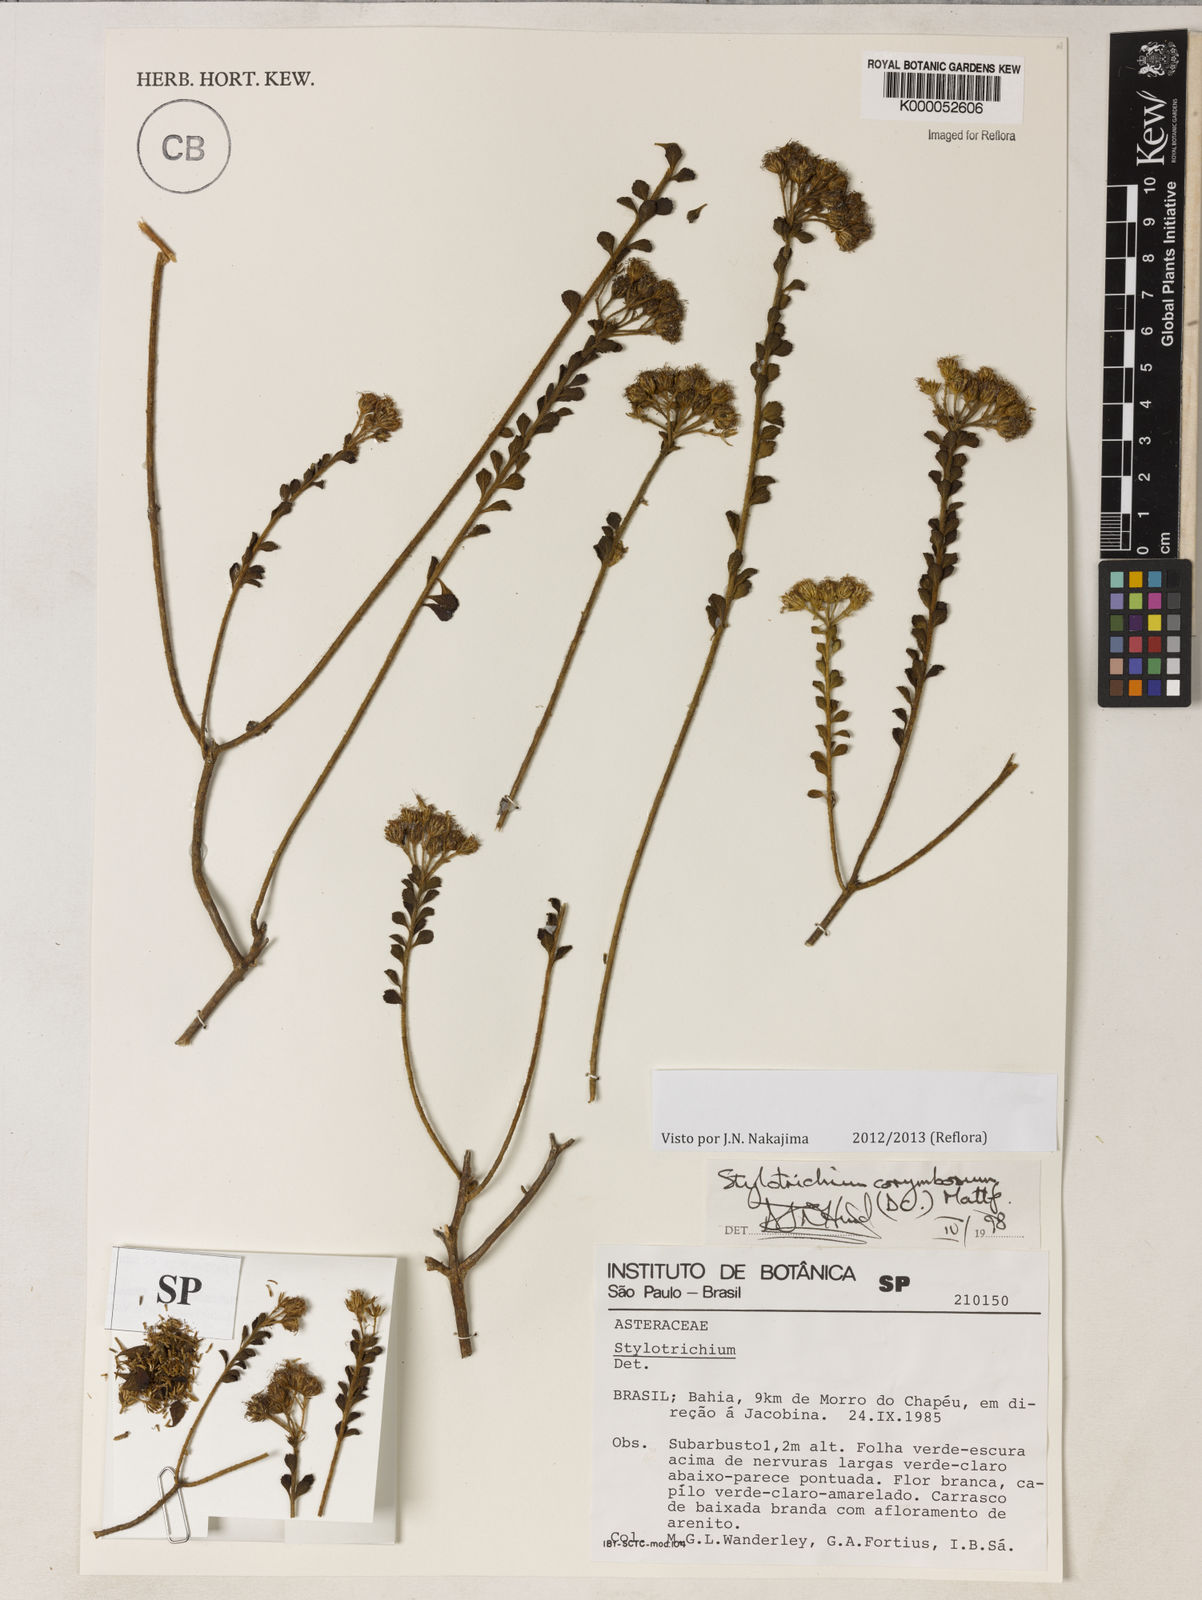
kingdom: Plantae
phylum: Tracheophyta
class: Magnoliopsida
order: Asterales
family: Asteraceae
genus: Stylotrichium
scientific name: Stylotrichium corymbosum
